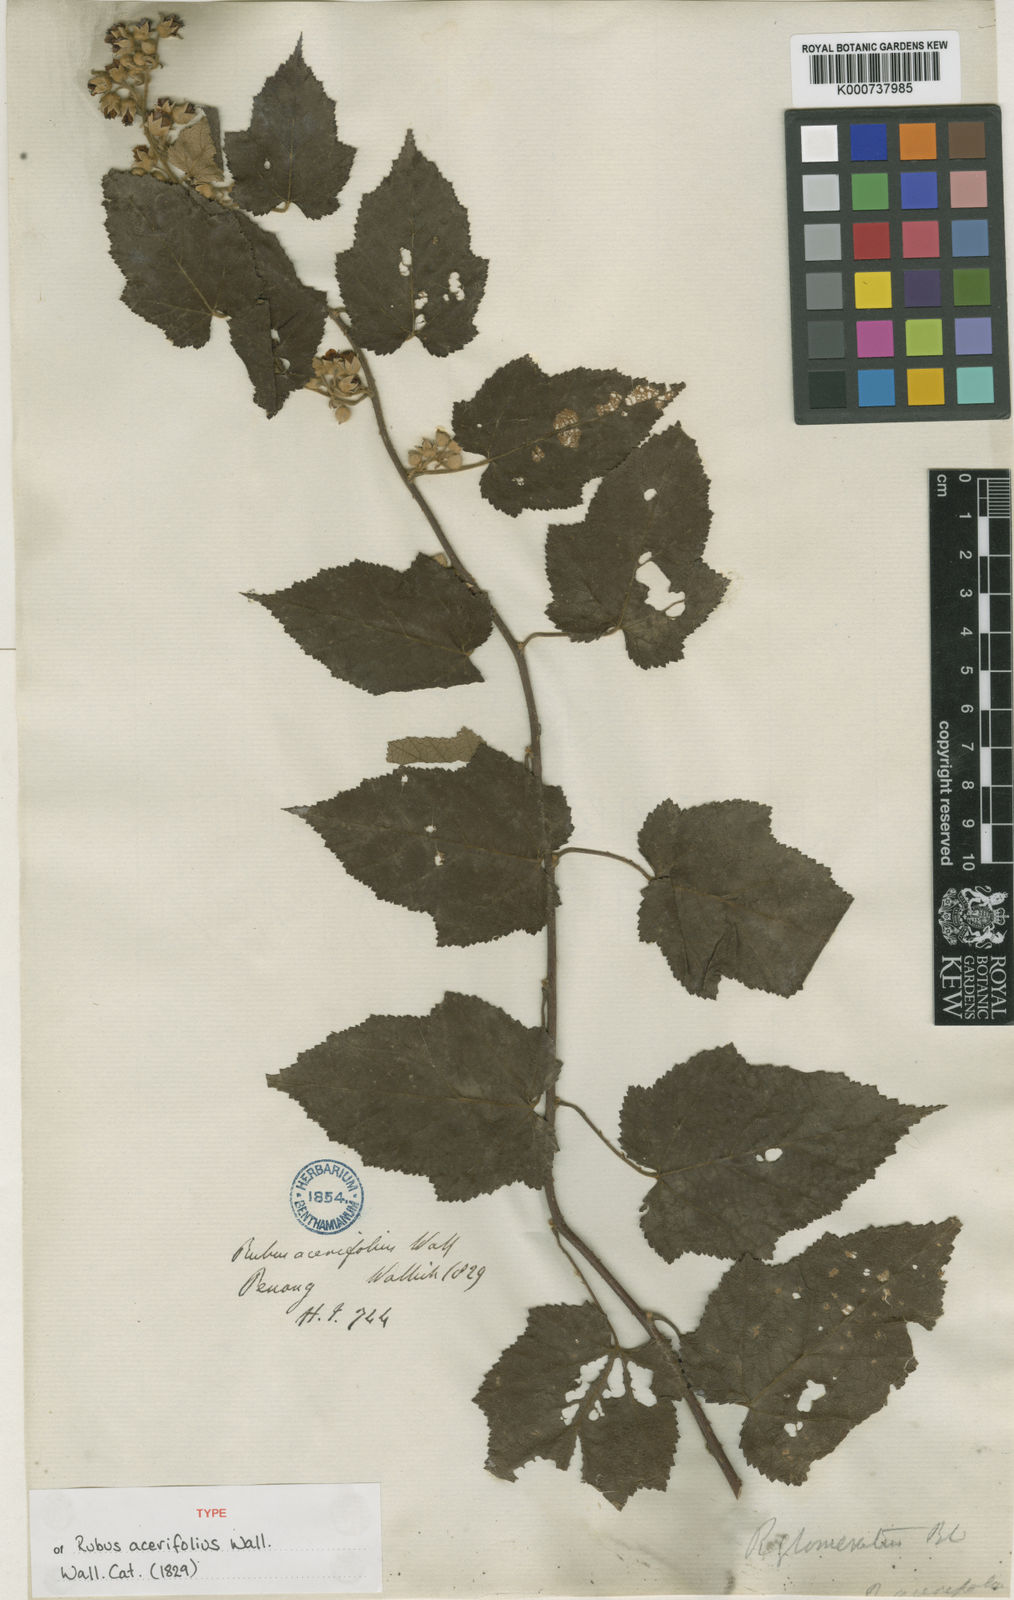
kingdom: Plantae
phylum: Tracheophyta
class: Magnoliopsida
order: Rosales
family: Rosaceae
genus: Rubus
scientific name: Rubus
